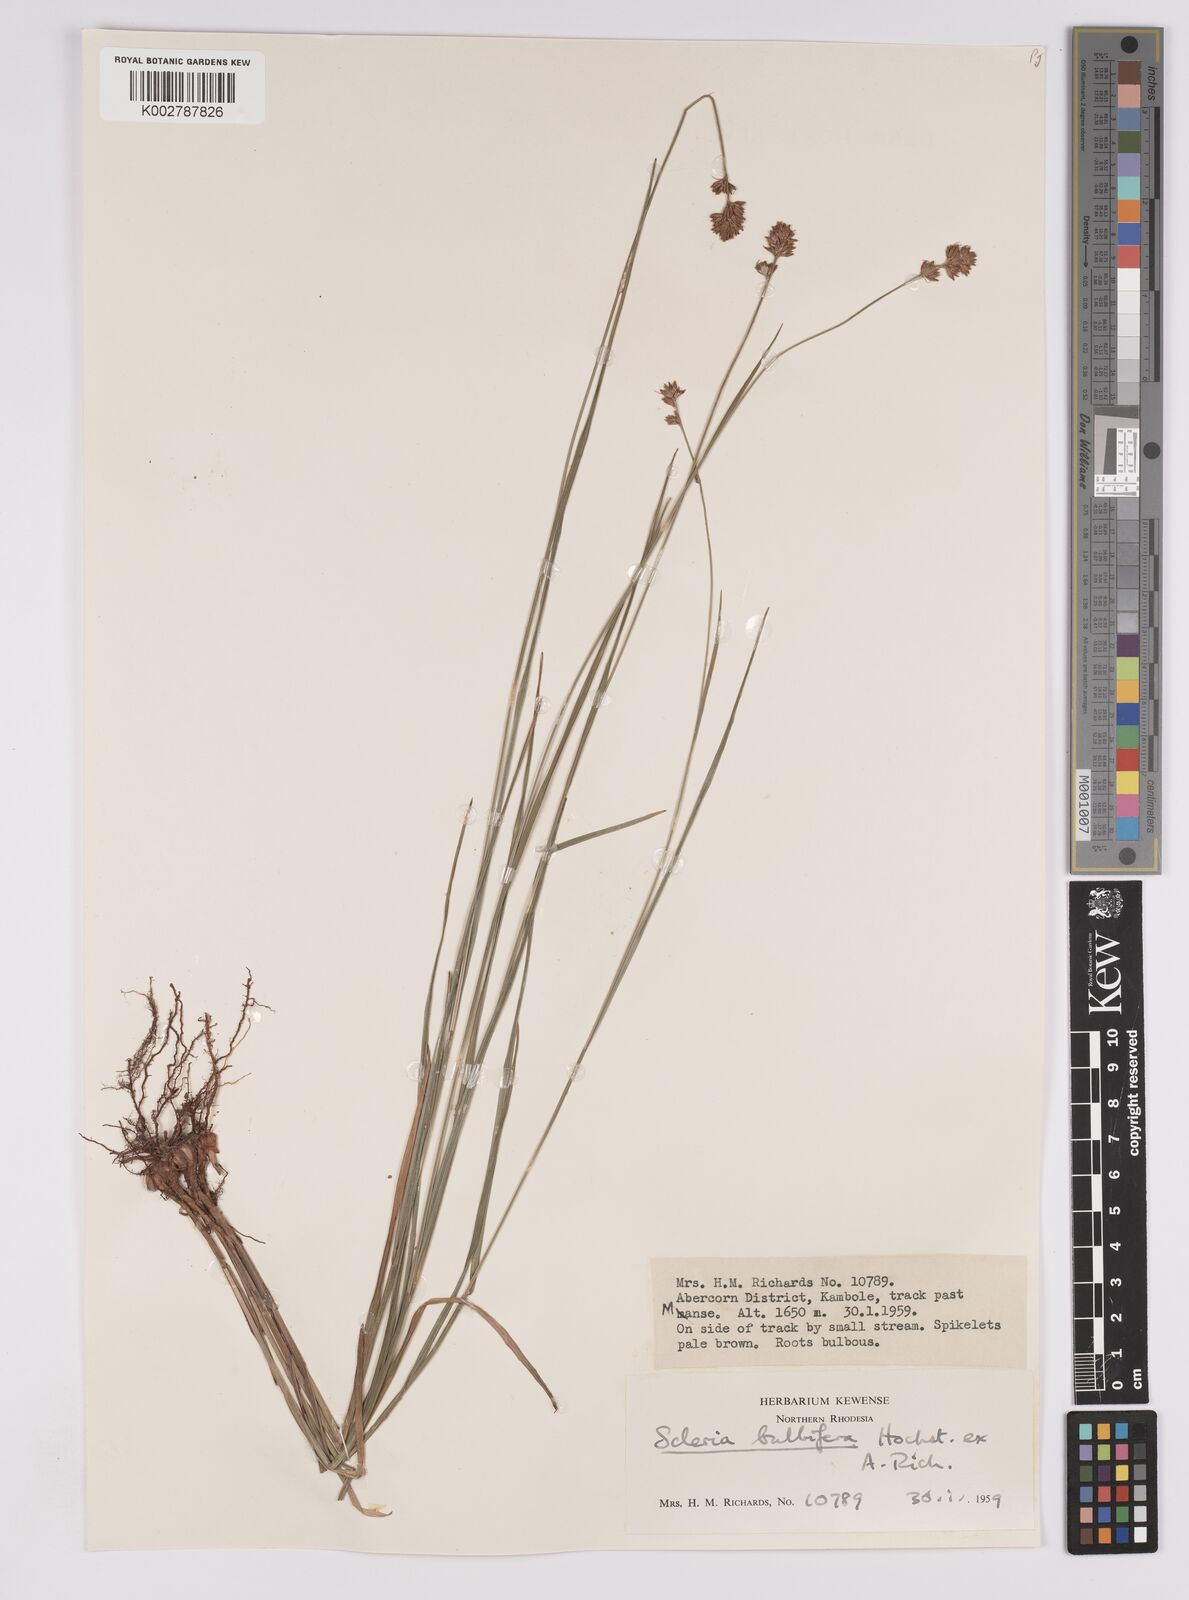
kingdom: Plantae
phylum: Tracheophyta
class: Liliopsida
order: Poales
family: Cyperaceae
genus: Scleria
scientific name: Scleria bulbifera
